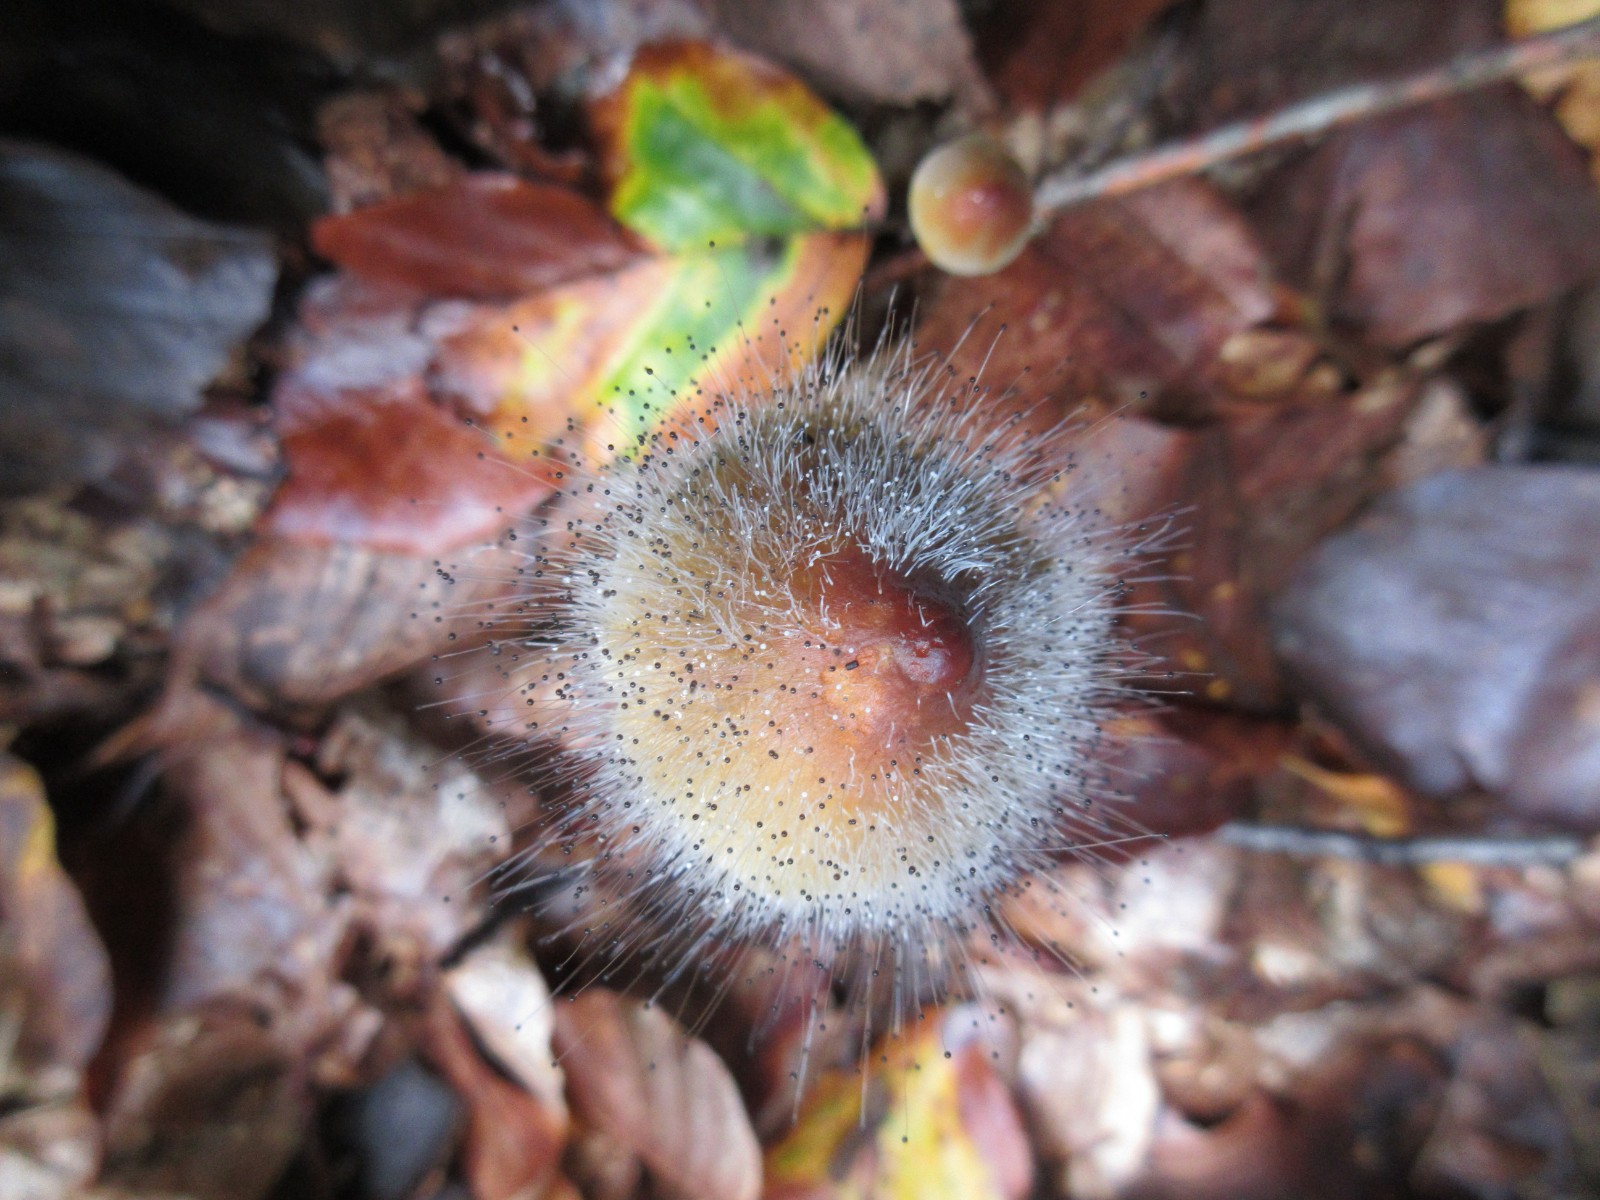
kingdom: Fungi
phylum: Mucoromycota
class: Mucoromycetes
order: Mucorales
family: Phycomycetaceae
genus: Spinellus
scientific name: Spinellus fusiger
